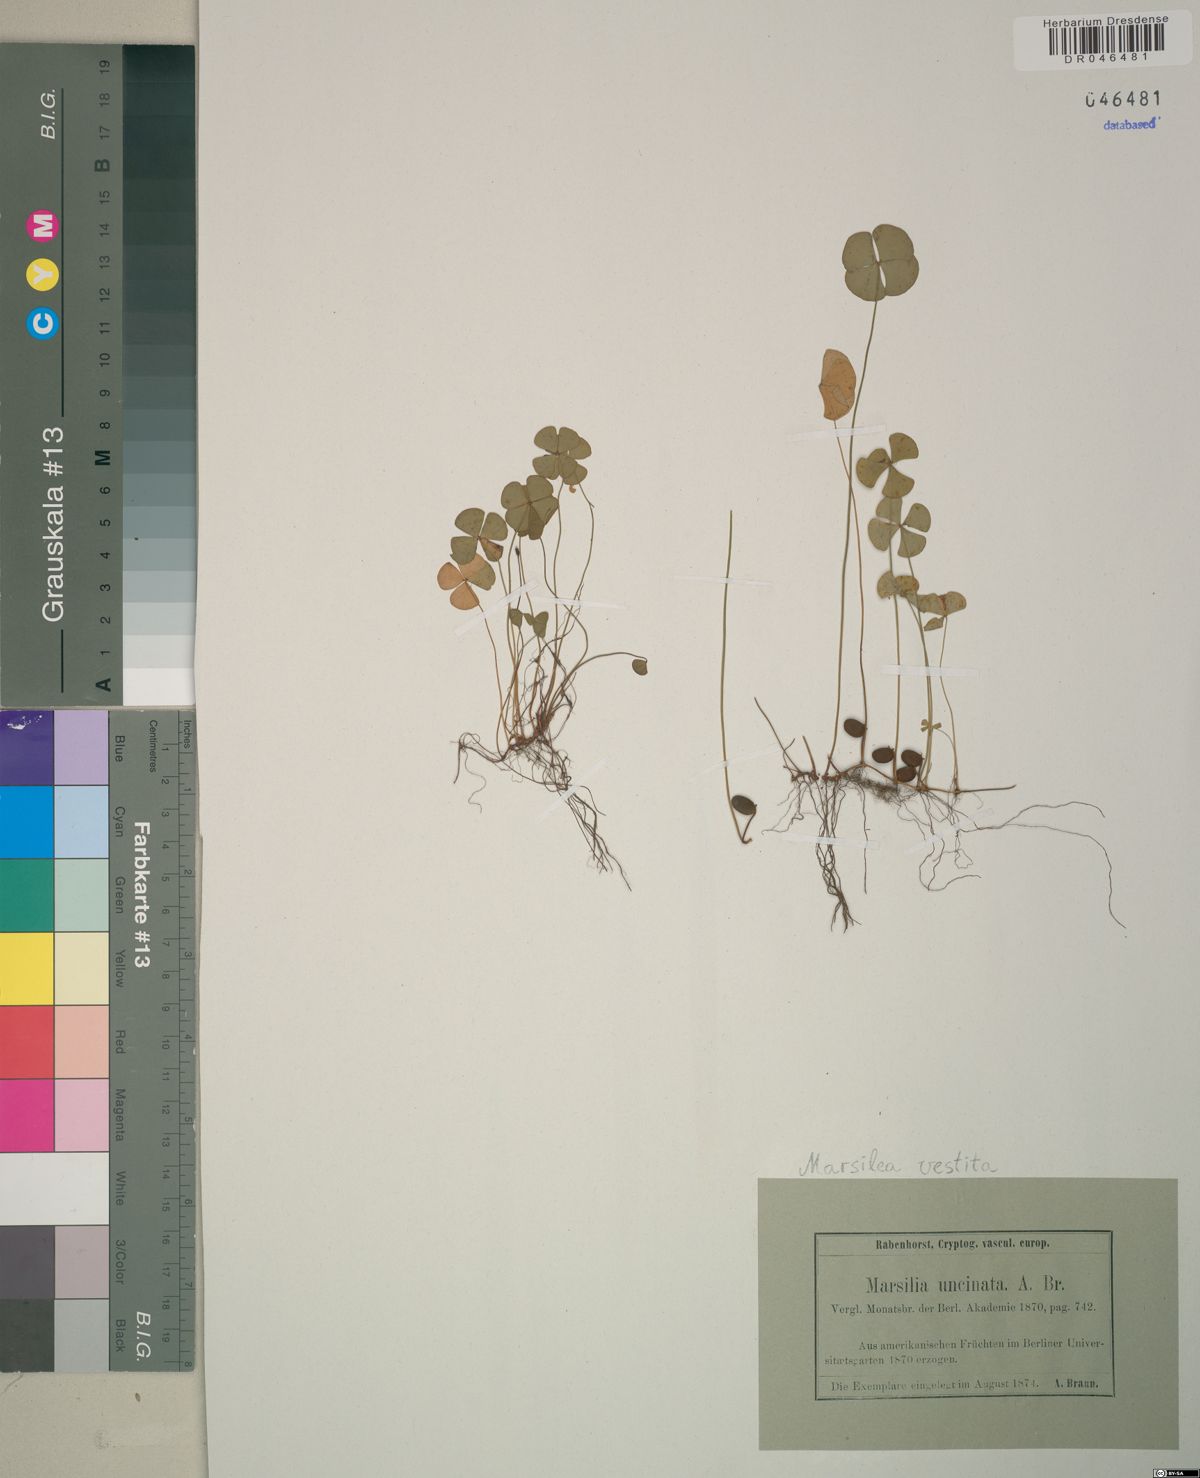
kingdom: Plantae
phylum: Tracheophyta
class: Polypodiopsida
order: Salviniales
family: Marsileaceae
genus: Marsilea
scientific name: Marsilea vestita
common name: Hooked-pepperwort
